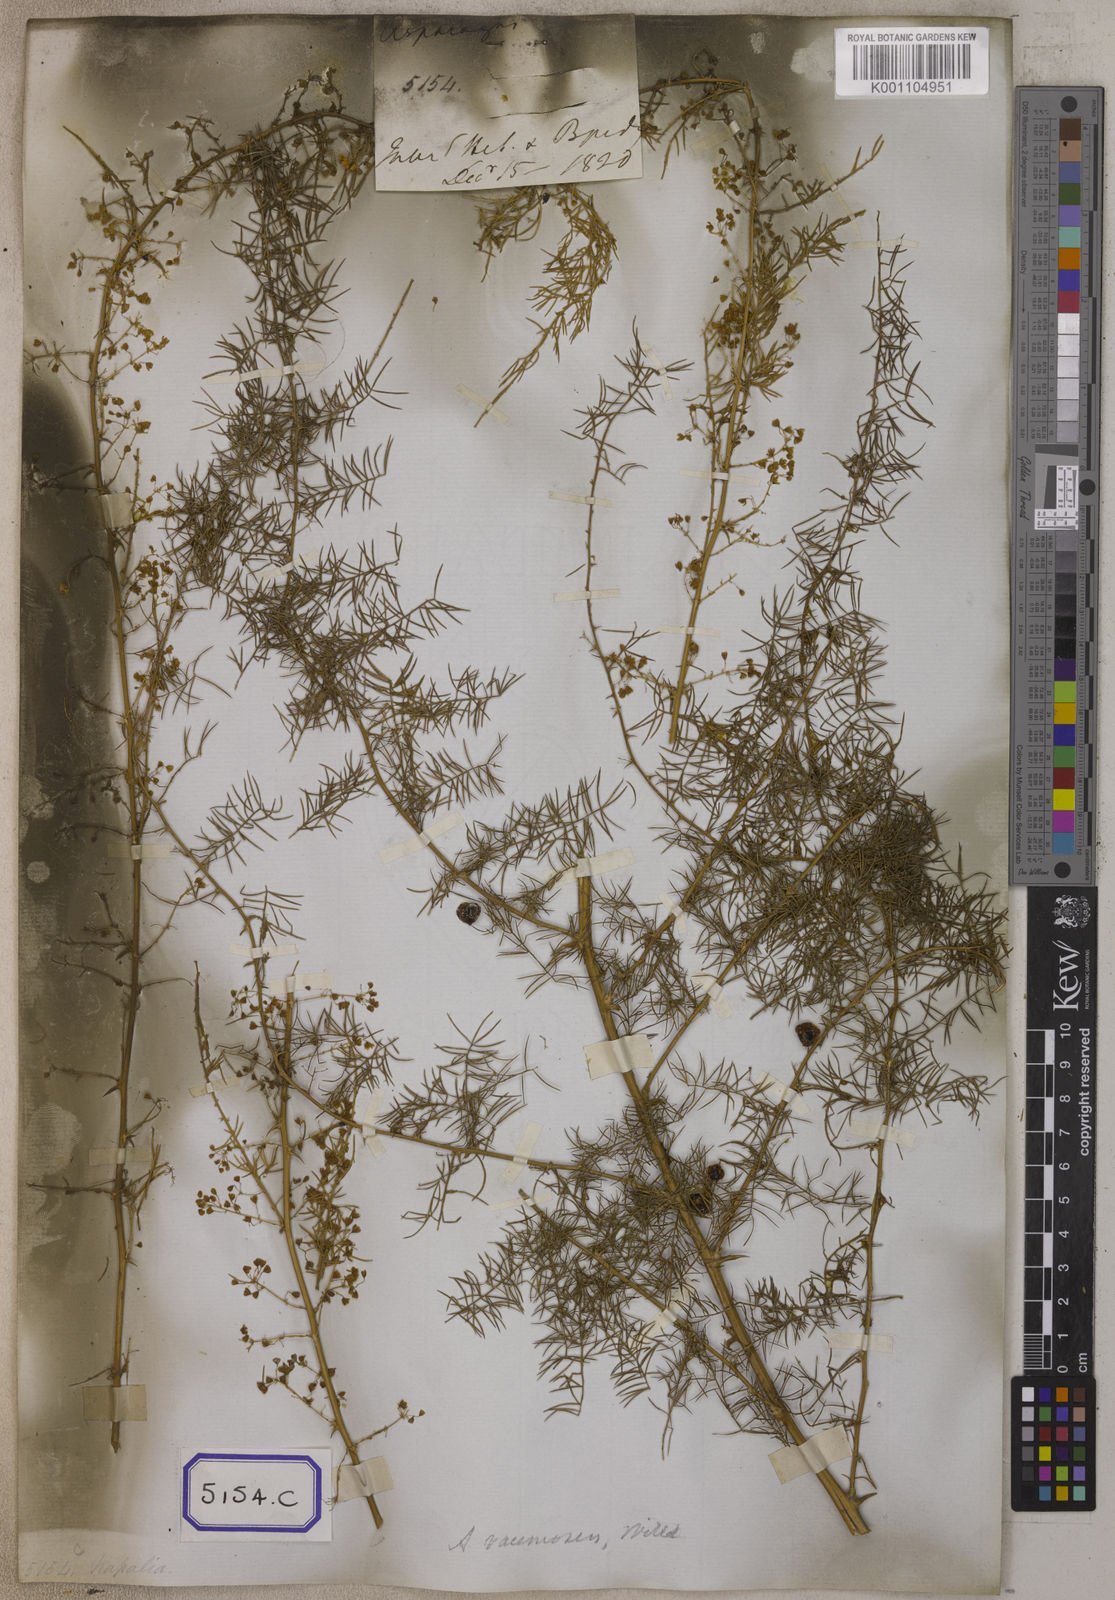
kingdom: Plantae
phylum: Tracheophyta
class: Liliopsida
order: Asparagales
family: Asparagaceae
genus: Asparagus
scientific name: Asparagus
